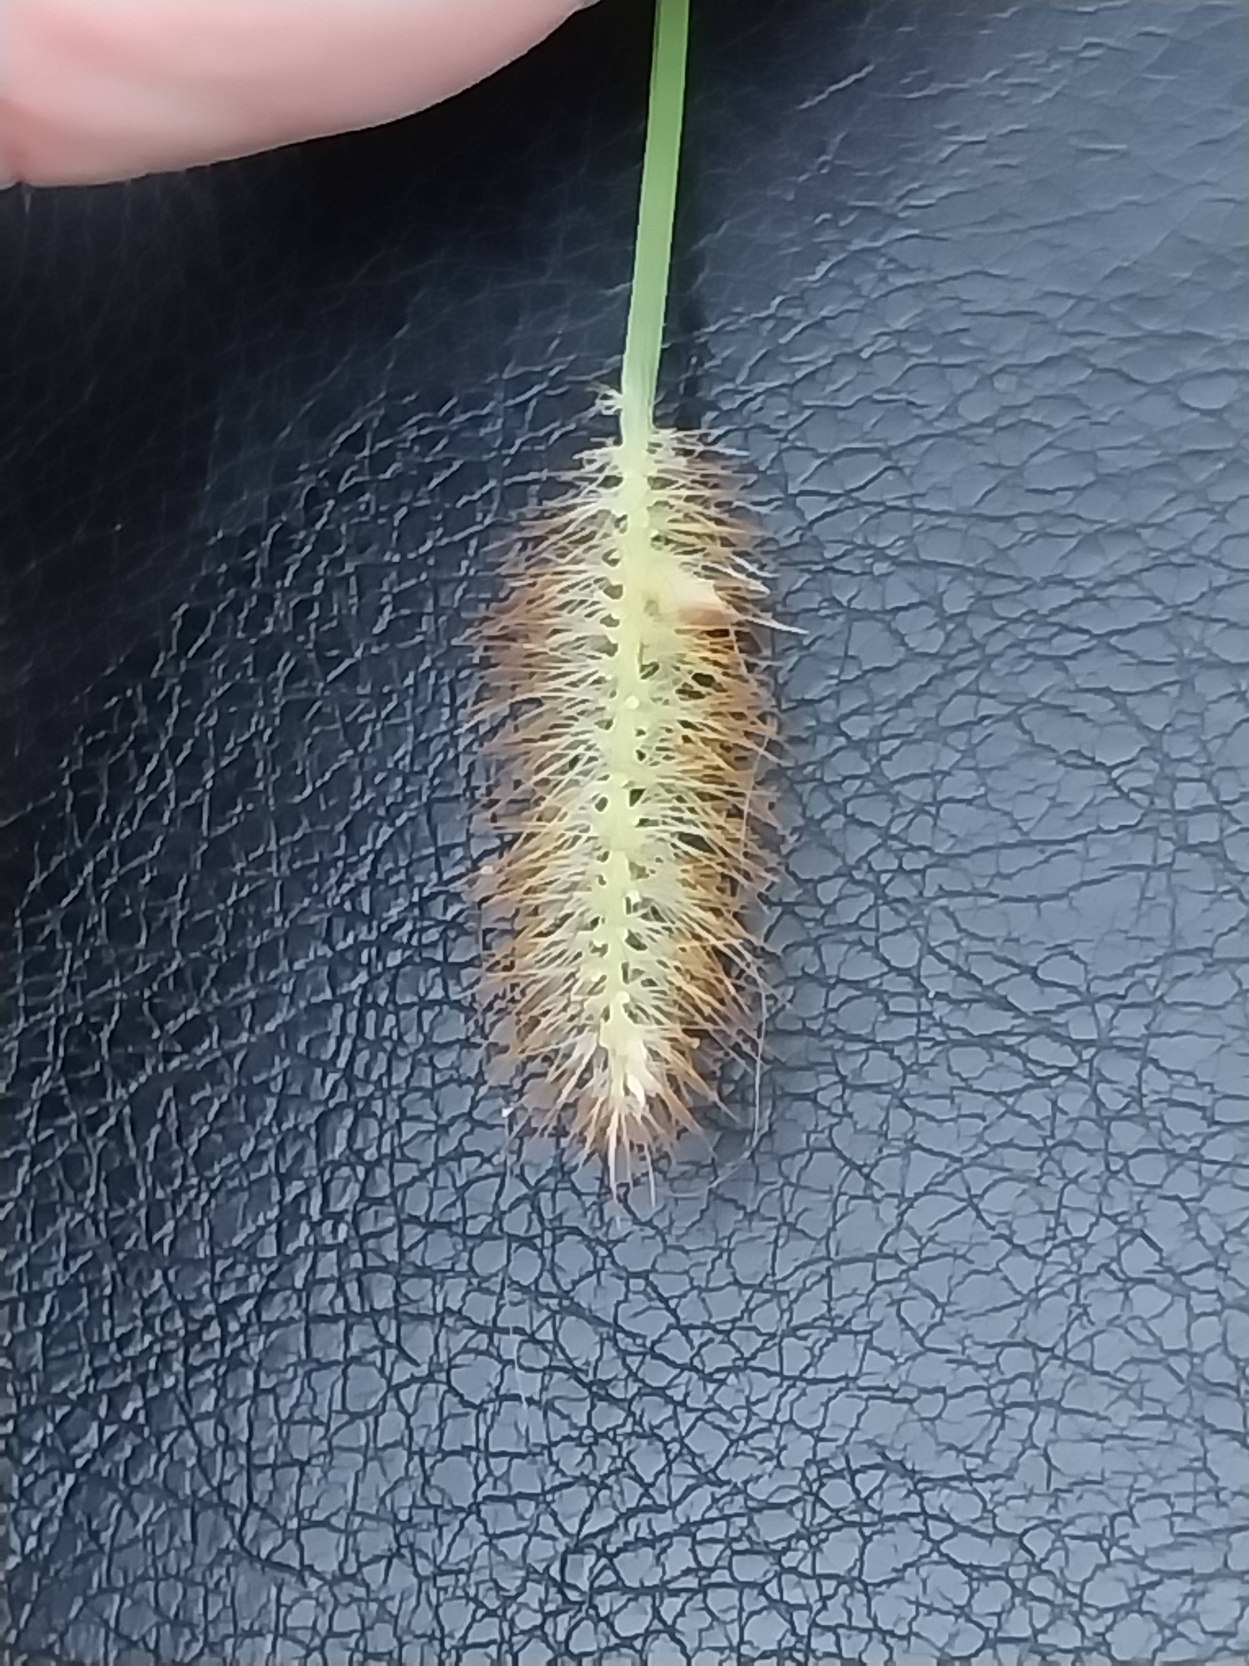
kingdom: Plantae
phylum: Tracheophyta
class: Liliopsida
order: Poales
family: Poaceae
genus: Setaria
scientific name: Setaria pumila
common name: Blågrøn skærmaks
